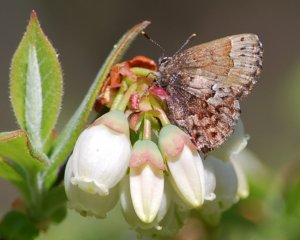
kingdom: Animalia
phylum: Arthropoda
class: Insecta
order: Lepidoptera
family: Lycaenidae
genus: Incisalia
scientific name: Incisalia lanoraieensis
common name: Bog Elfin
